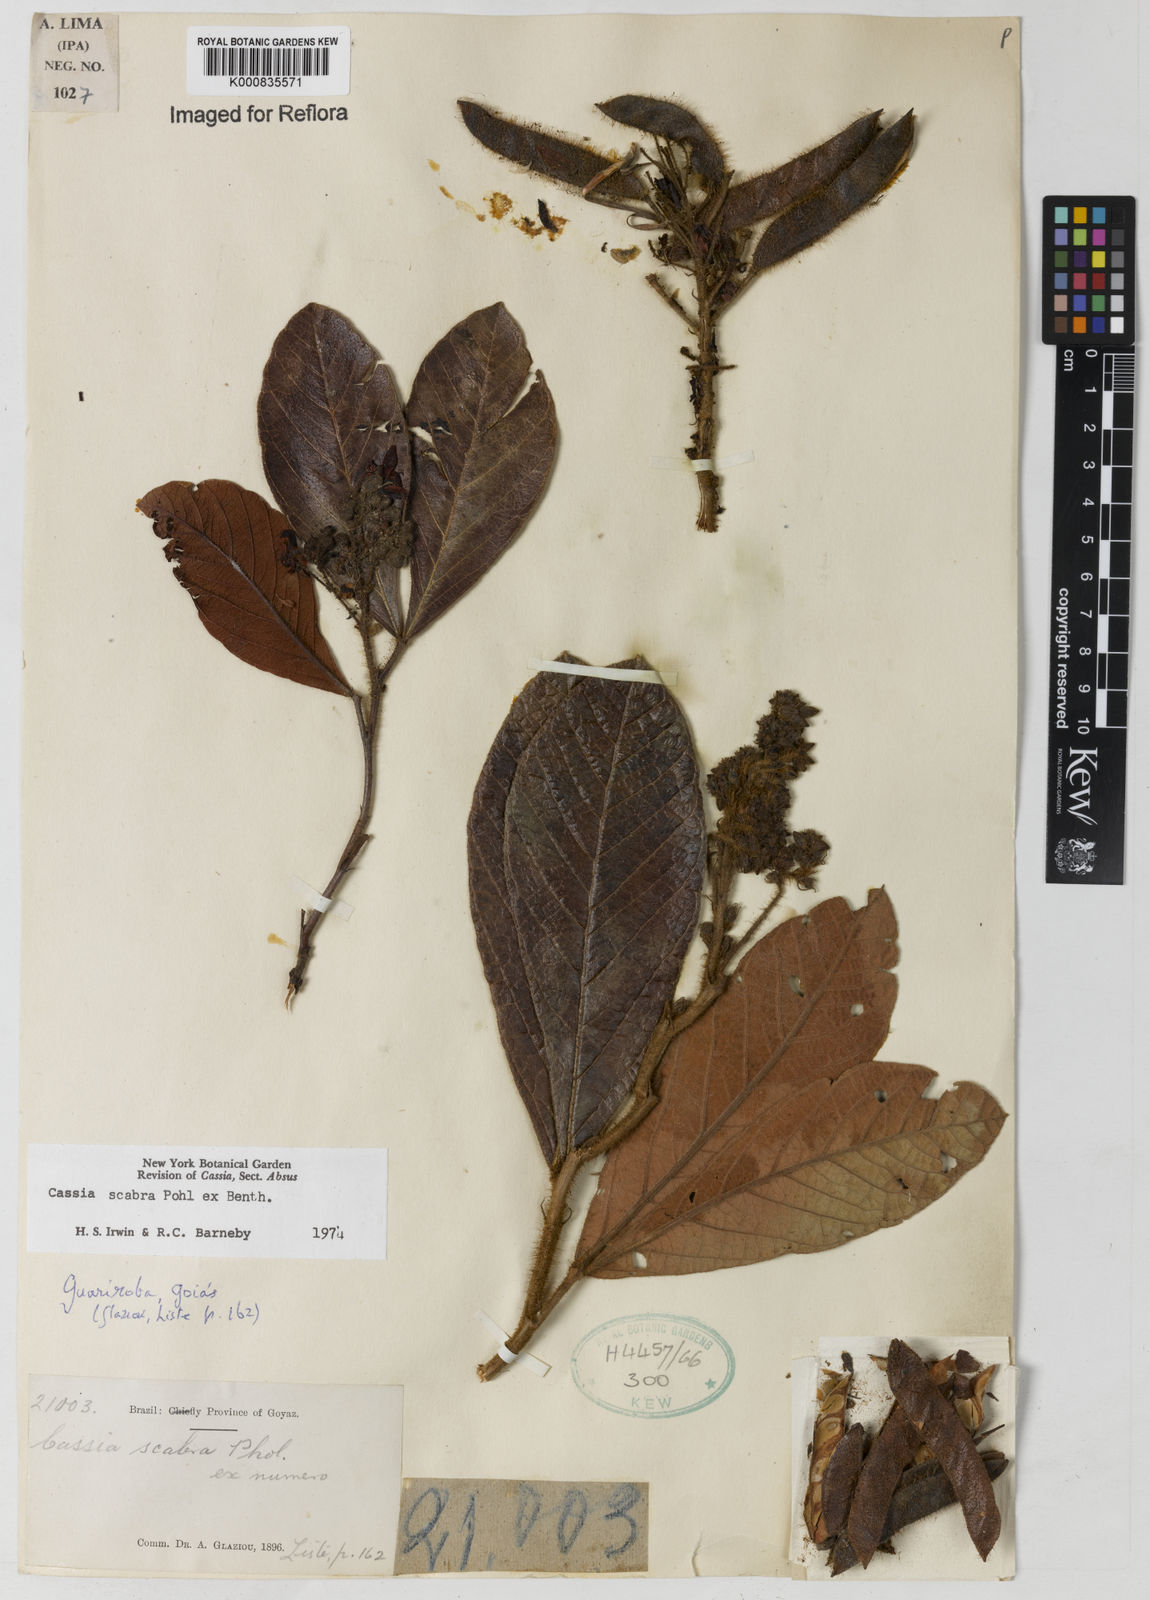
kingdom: Plantae
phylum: Tracheophyta
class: Magnoliopsida
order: Fabales
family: Fabaceae
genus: Chamaecrista
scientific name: Chamaecrista scabra
